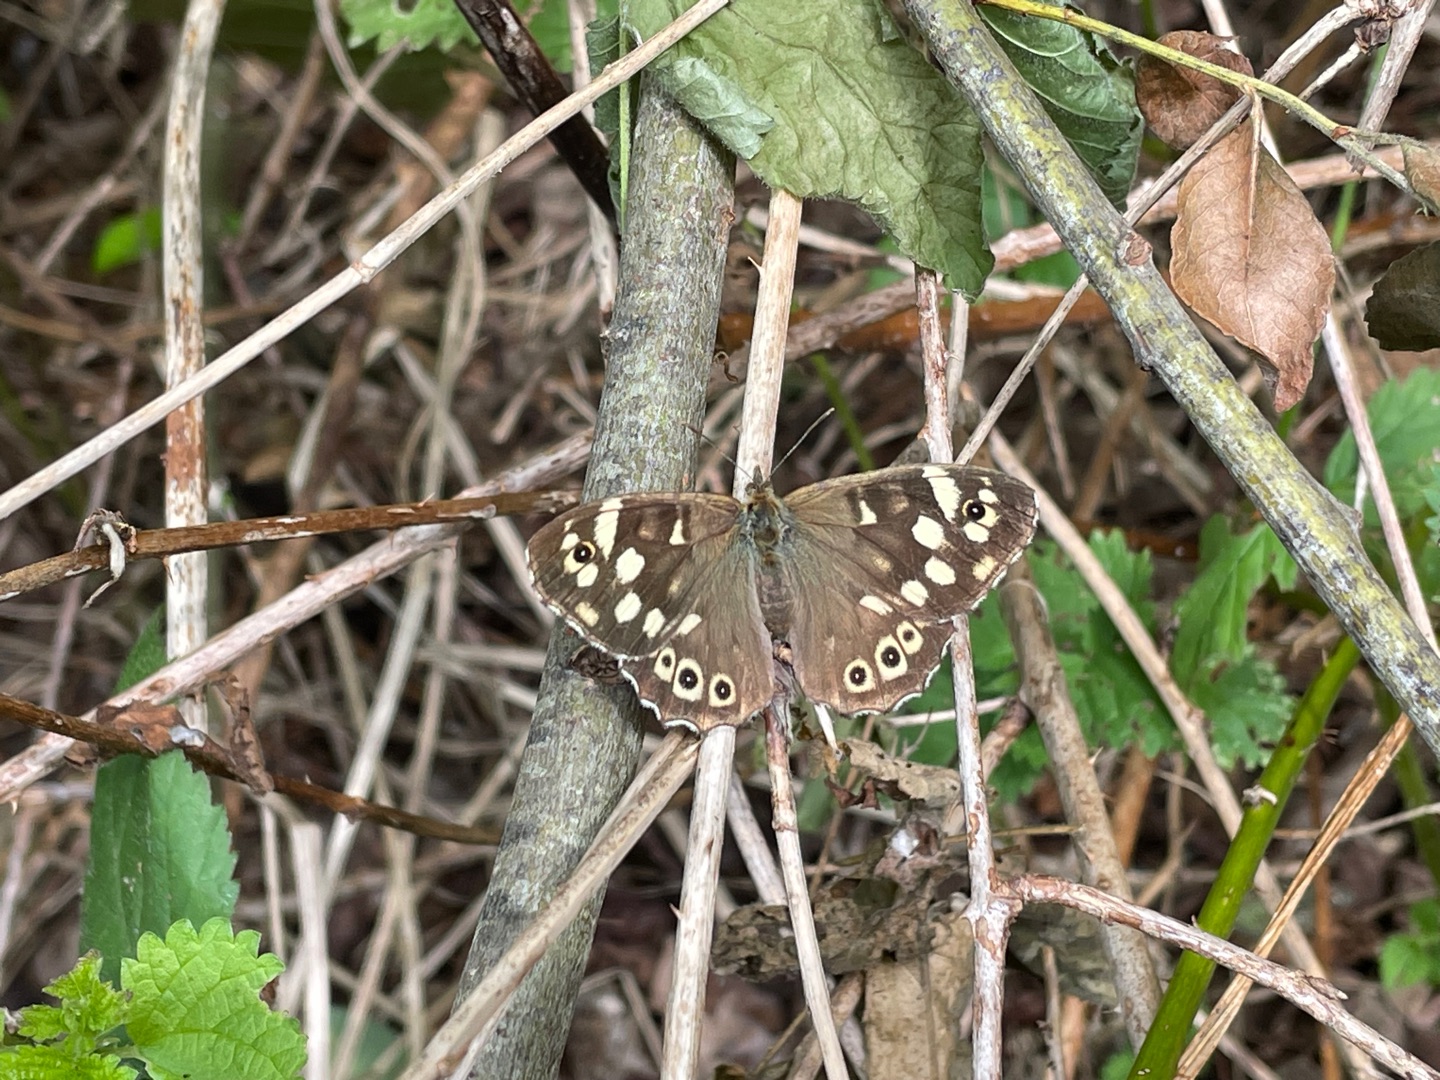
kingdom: Animalia
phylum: Arthropoda
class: Insecta
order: Lepidoptera
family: Nymphalidae
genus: Pararge
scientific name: Pararge aegeria
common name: Skovrandøje
